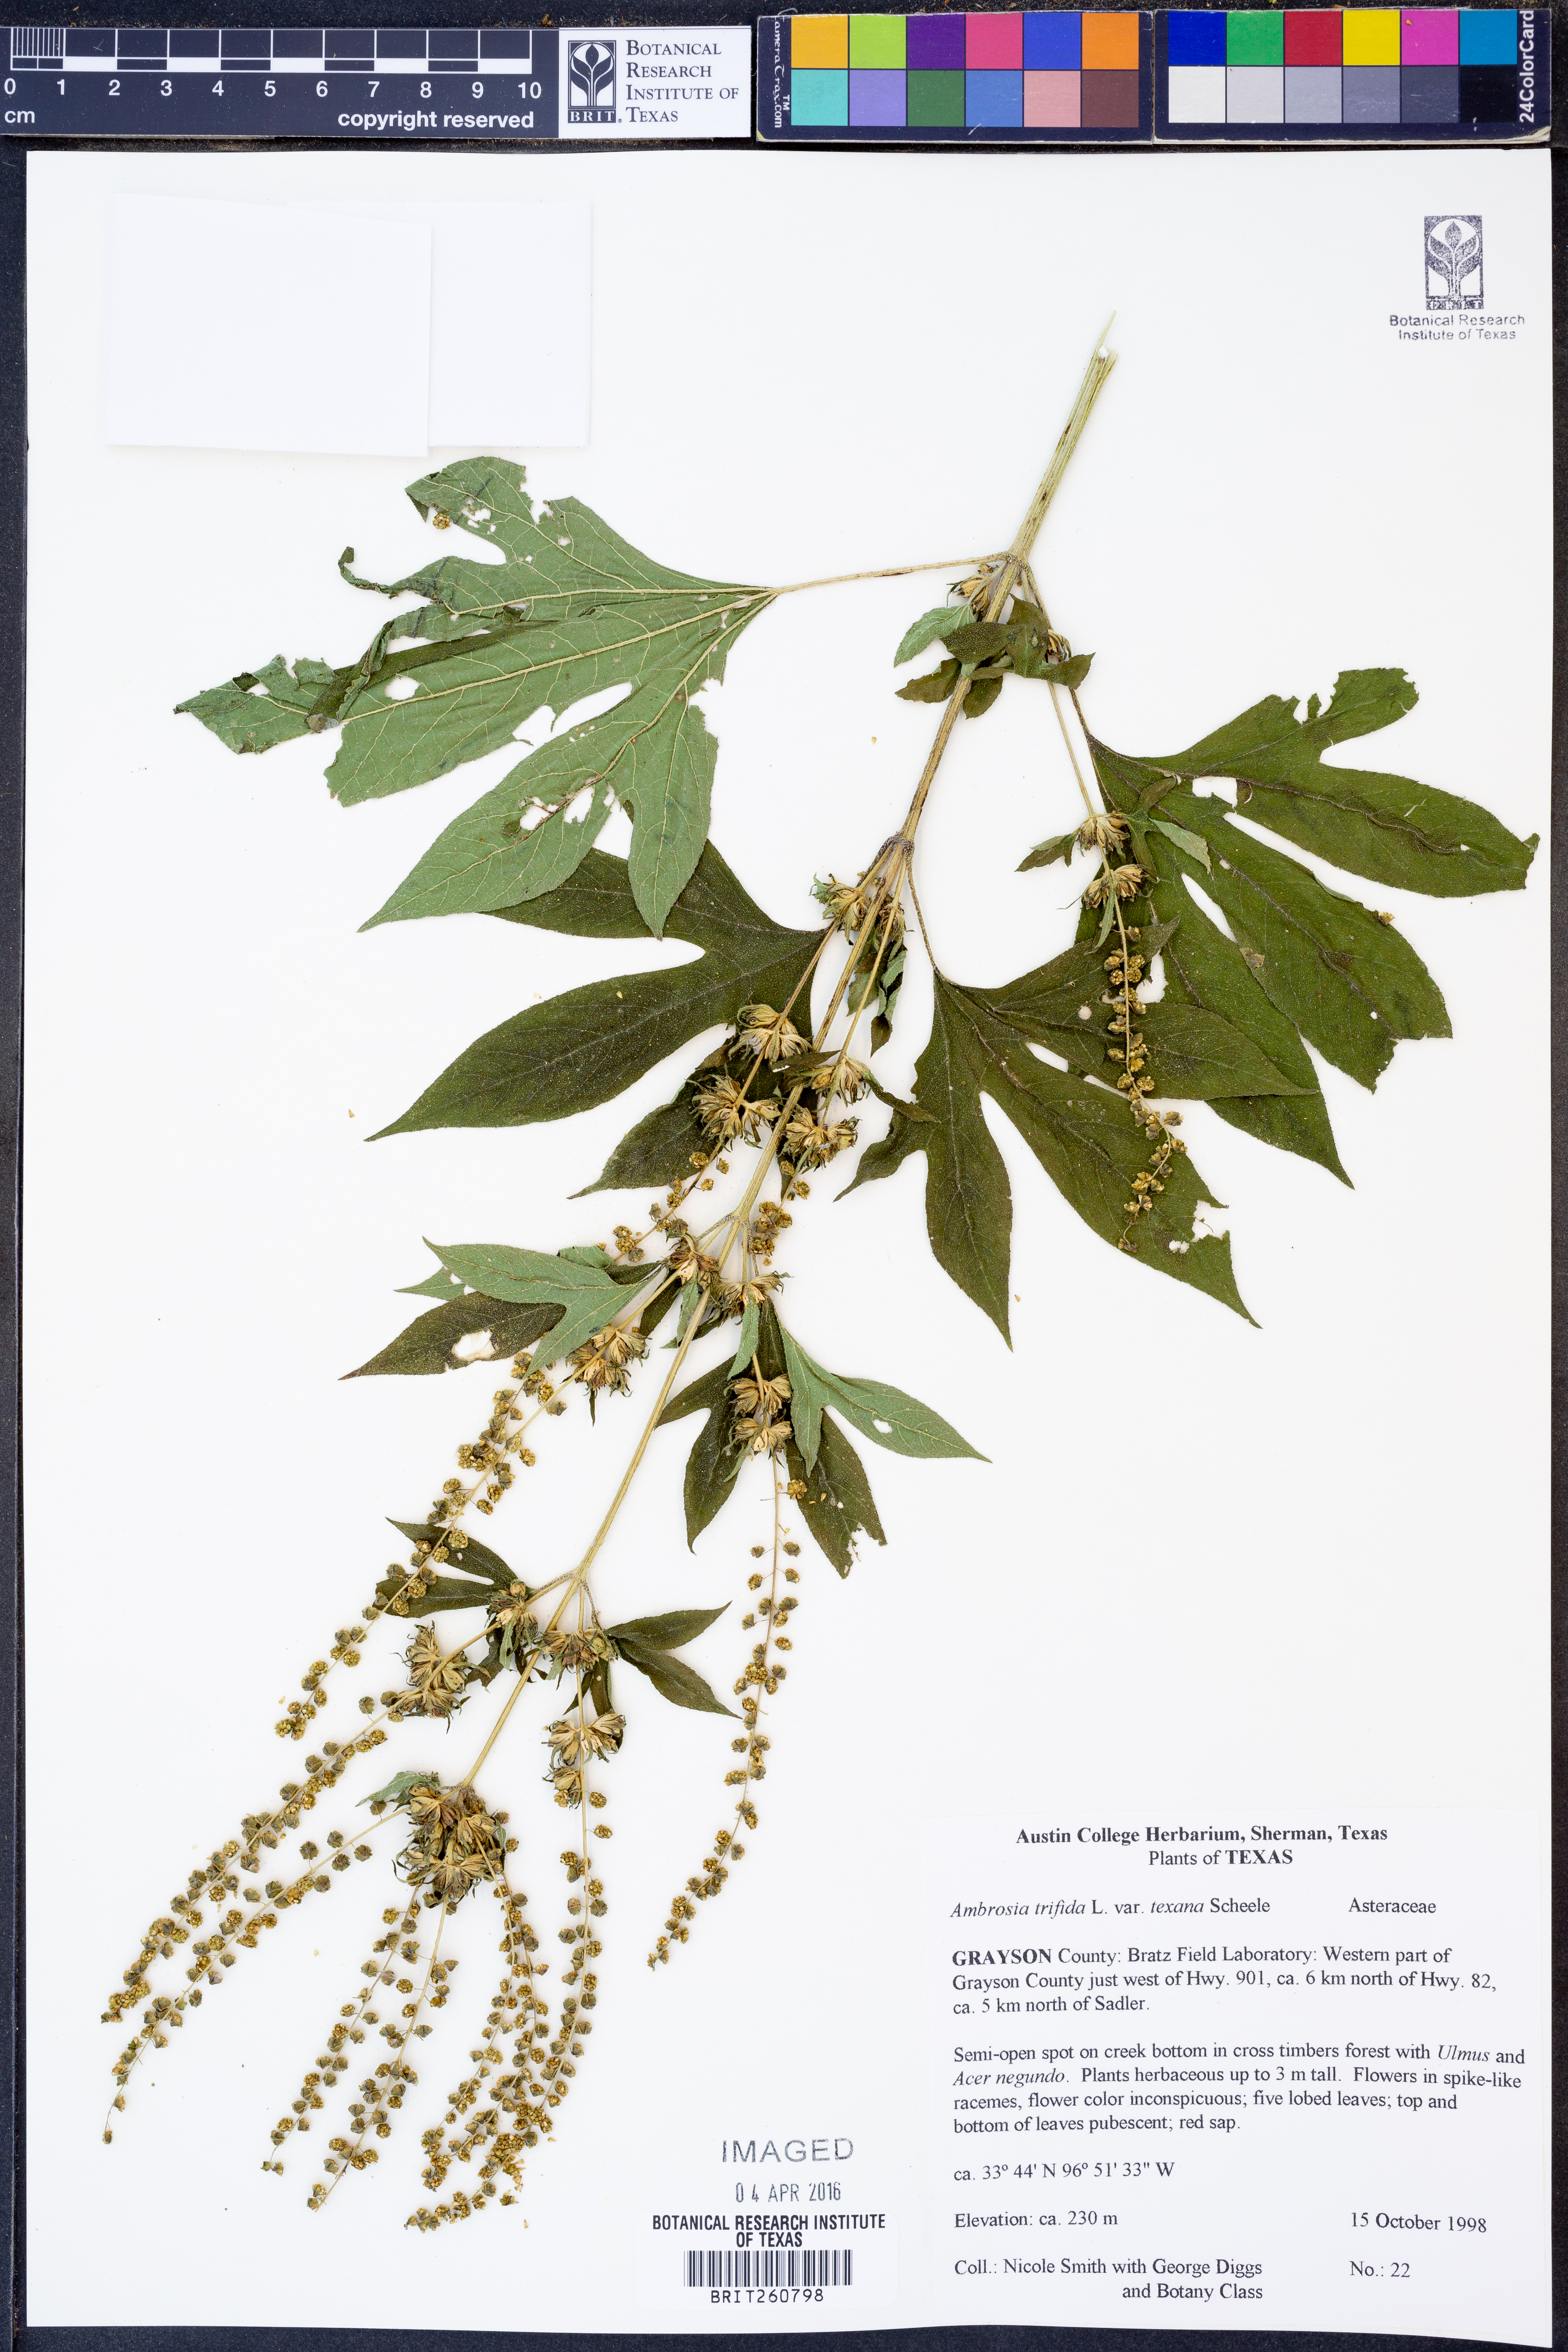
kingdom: Plantae
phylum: Tracheophyta
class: Magnoliopsida
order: Asterales
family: Asteraceae
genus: Ambrosia
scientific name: Ambrosia trifida
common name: Giant ragweed
